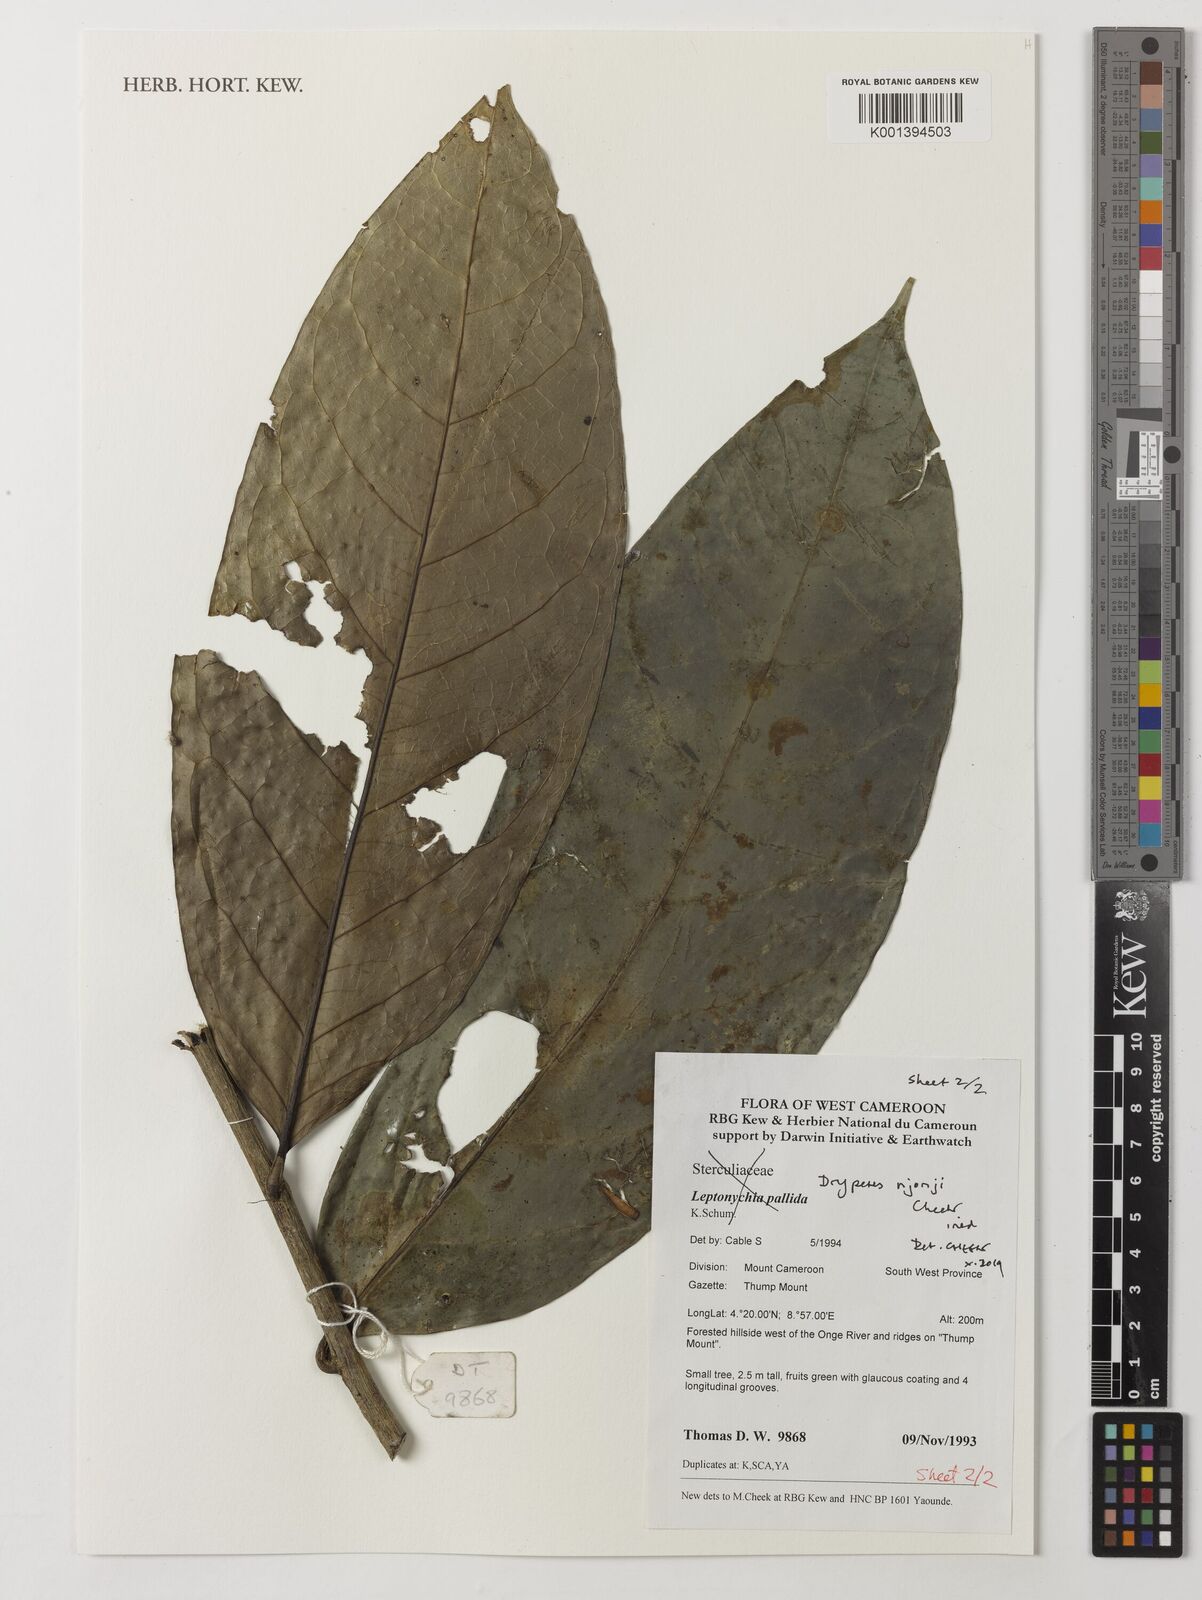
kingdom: Plantae
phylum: Tracheophyta
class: Magnoliopsida
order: Malpighiales
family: Putranjivaceae
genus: Drypetes
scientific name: Drypetes
